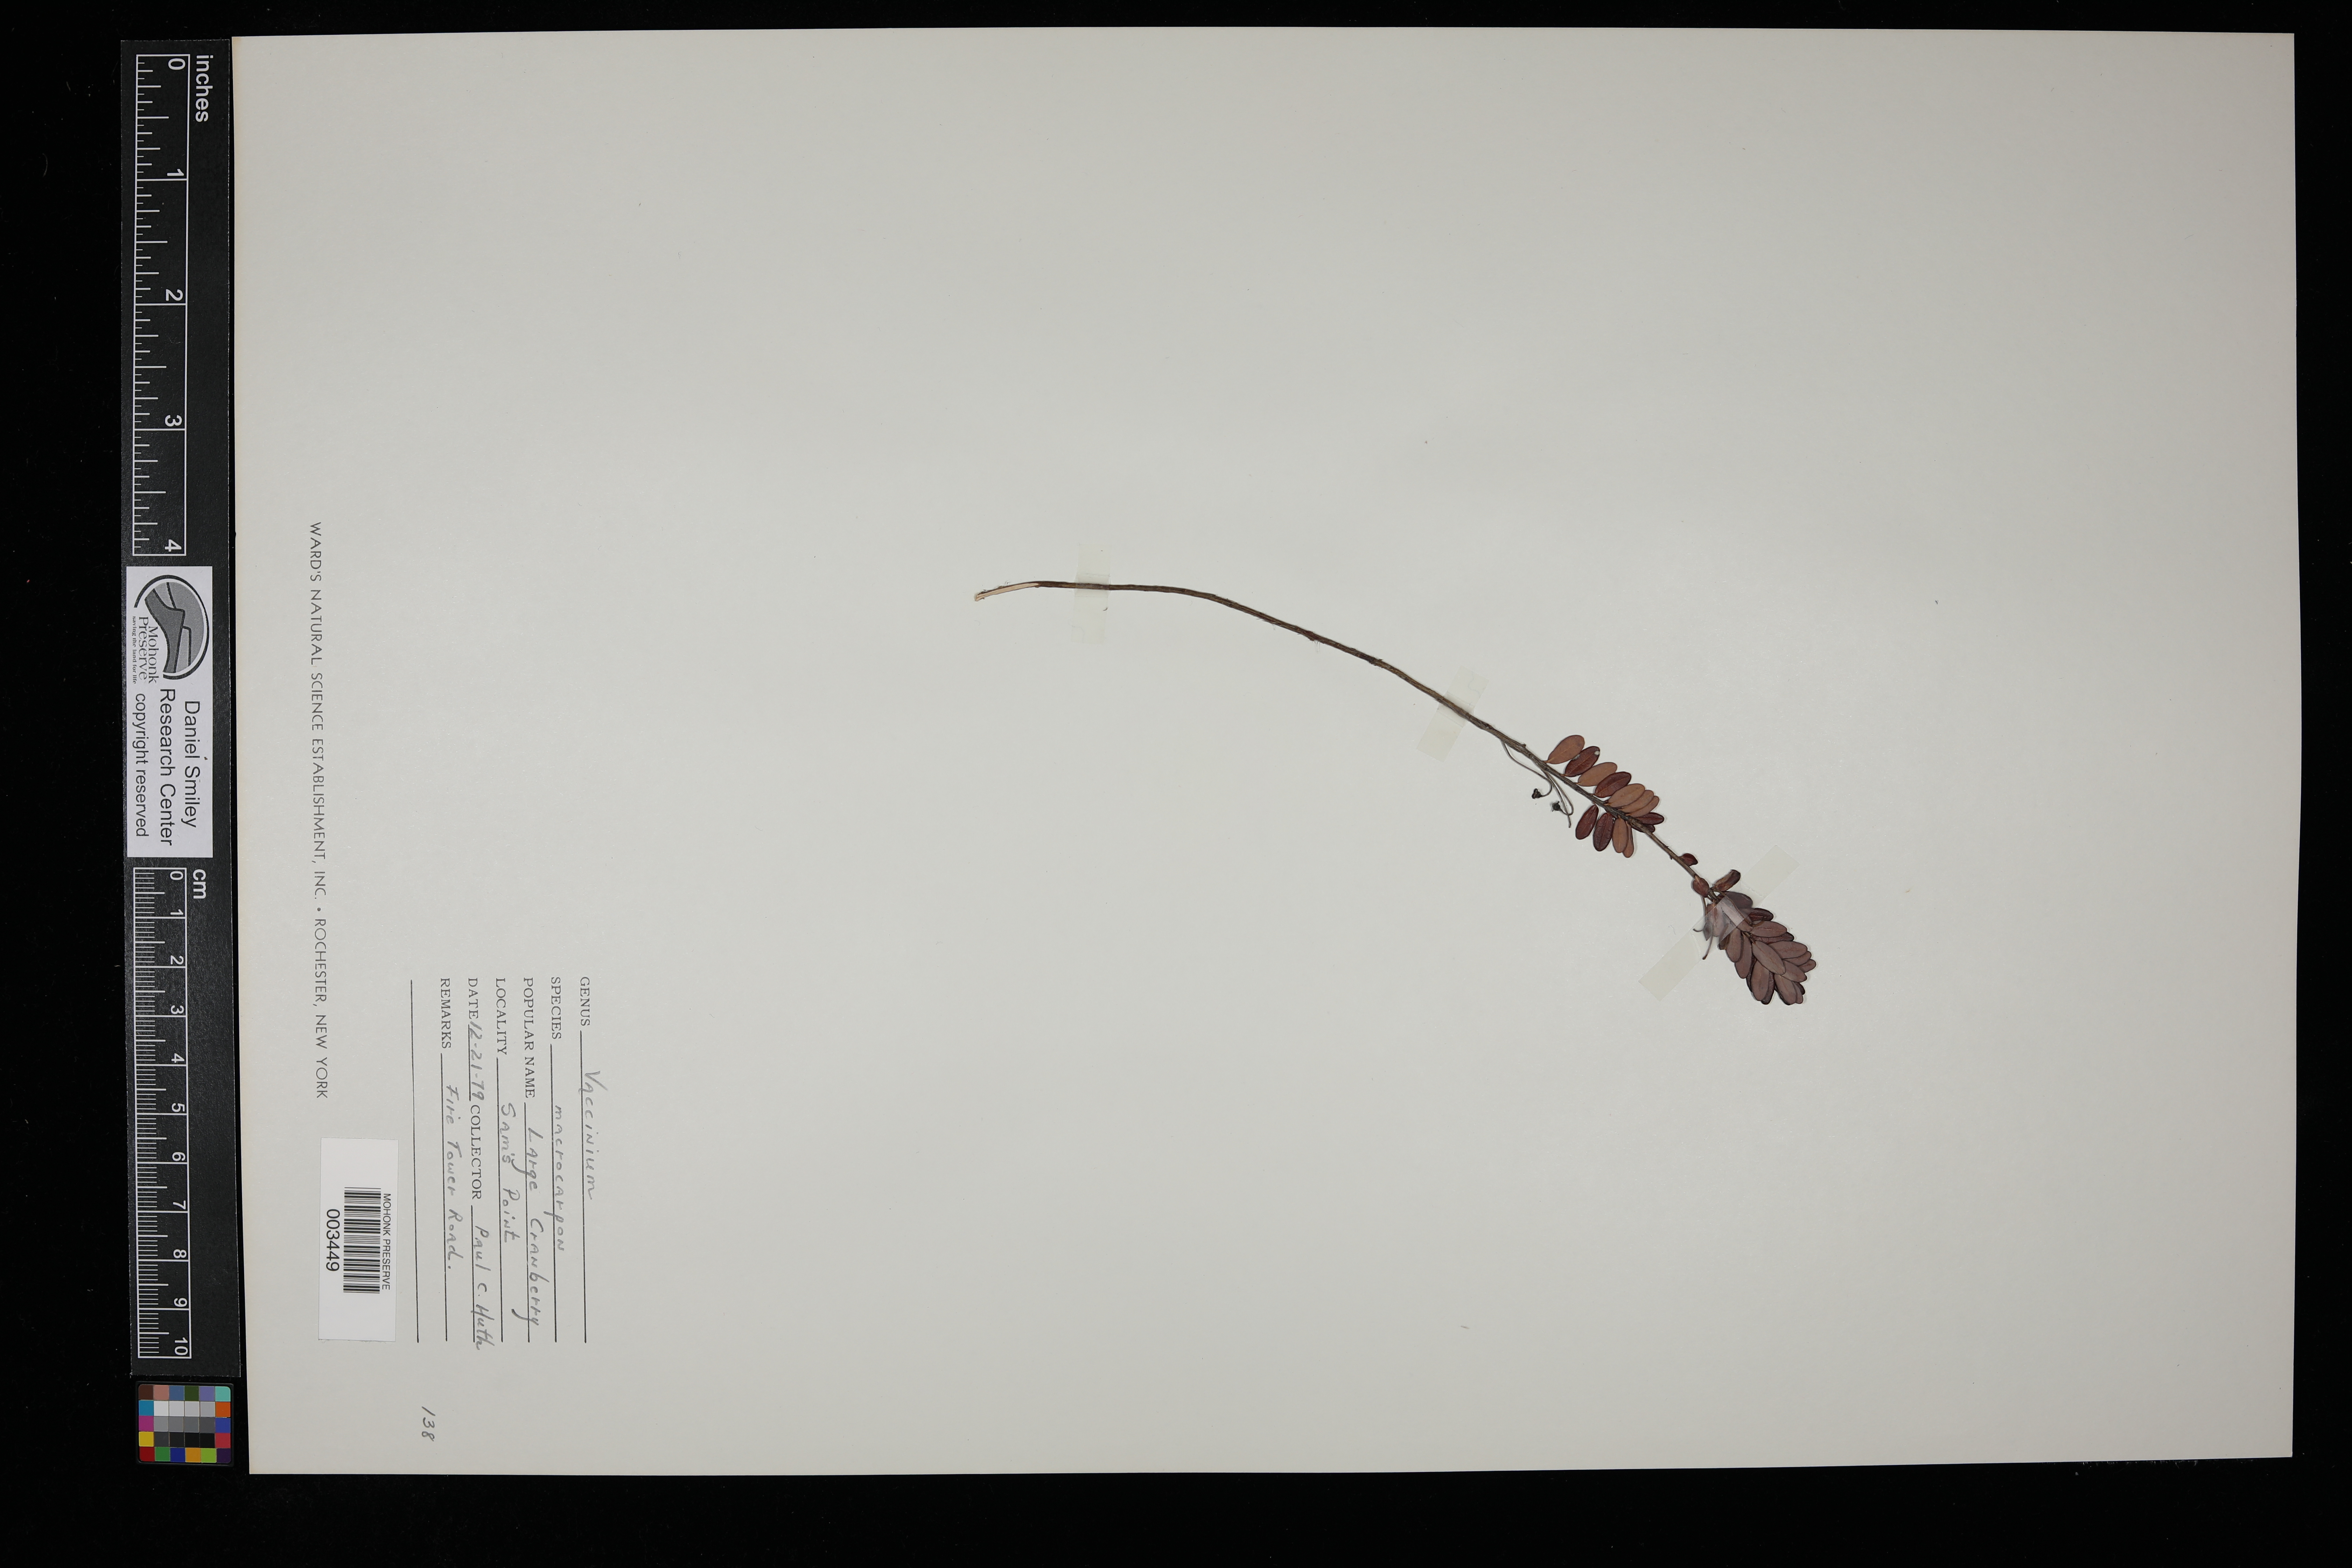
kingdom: Plantae
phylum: Tracheophyta
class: Magnoliopsida
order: Ericales
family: Ericaceae
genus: Vaccinium
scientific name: Vaccinium macrocarpon
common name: American cranberry
